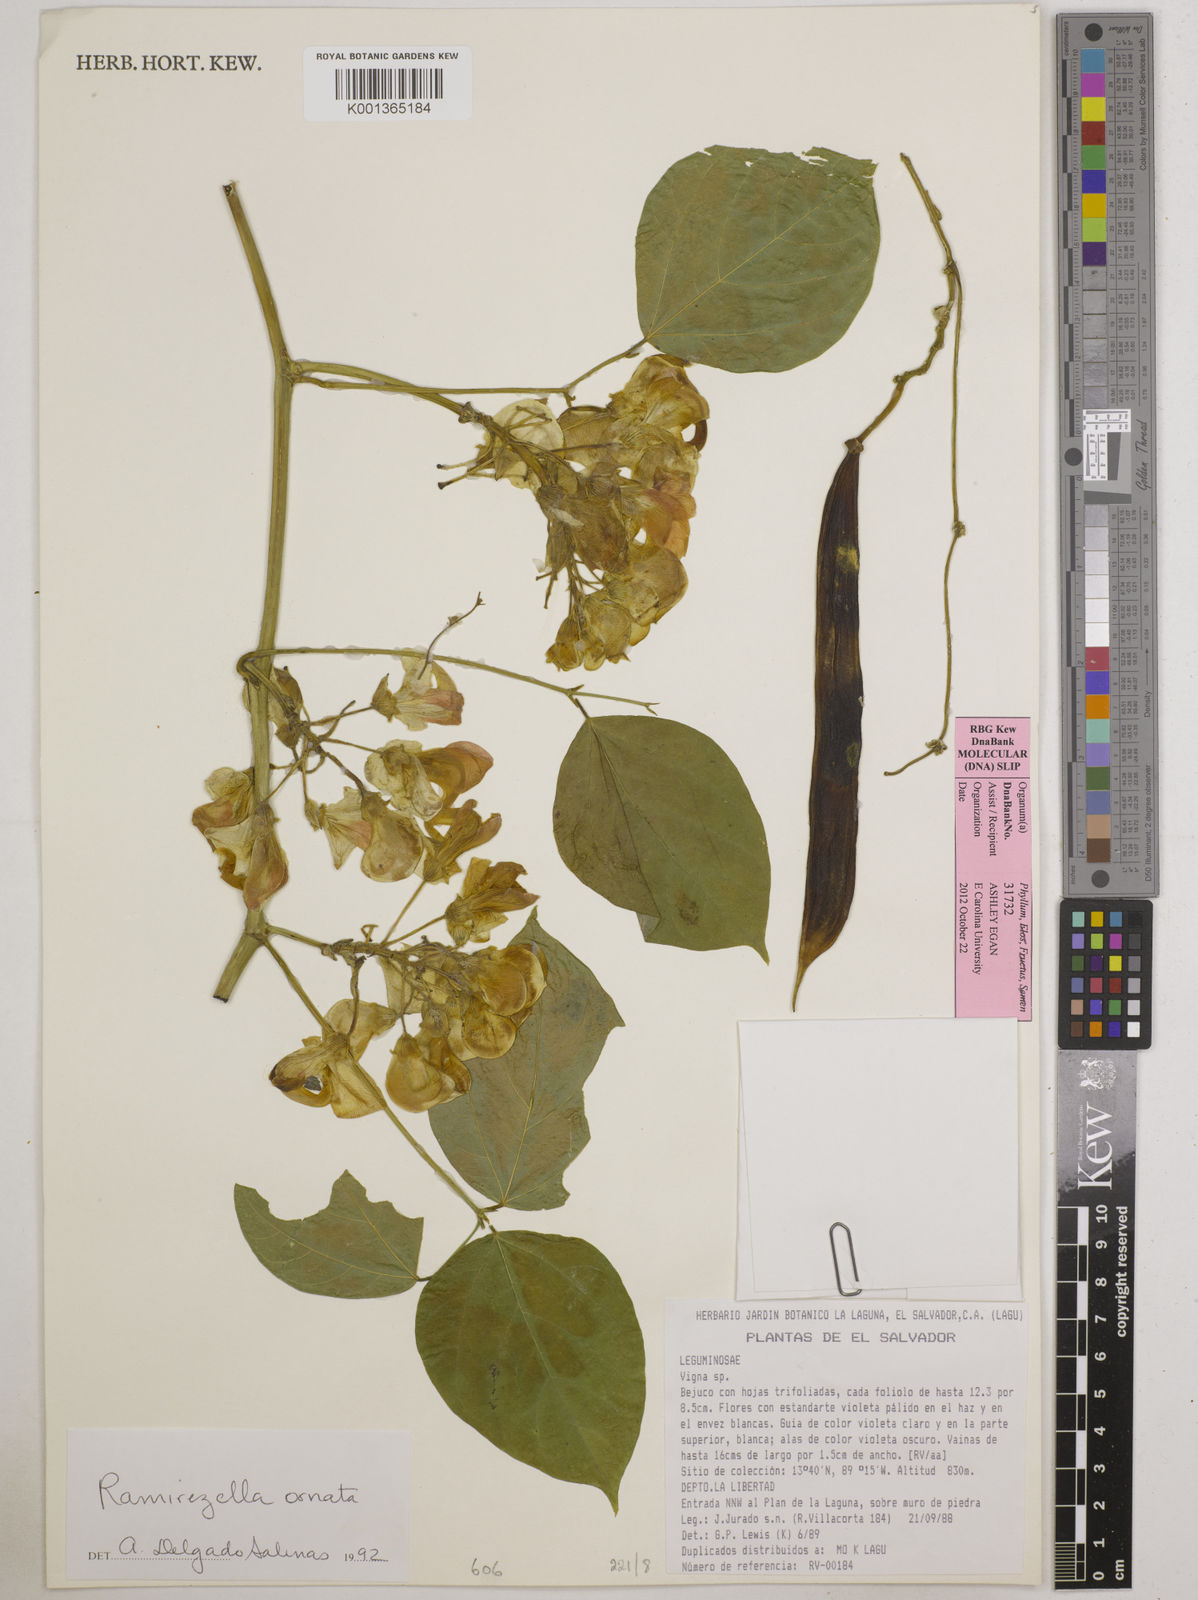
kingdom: Plantae
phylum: Tracheophyta
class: Magnoliopsida
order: Fabales
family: Fabaceae
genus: Ramirezella
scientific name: Ramirezella strobilophora
